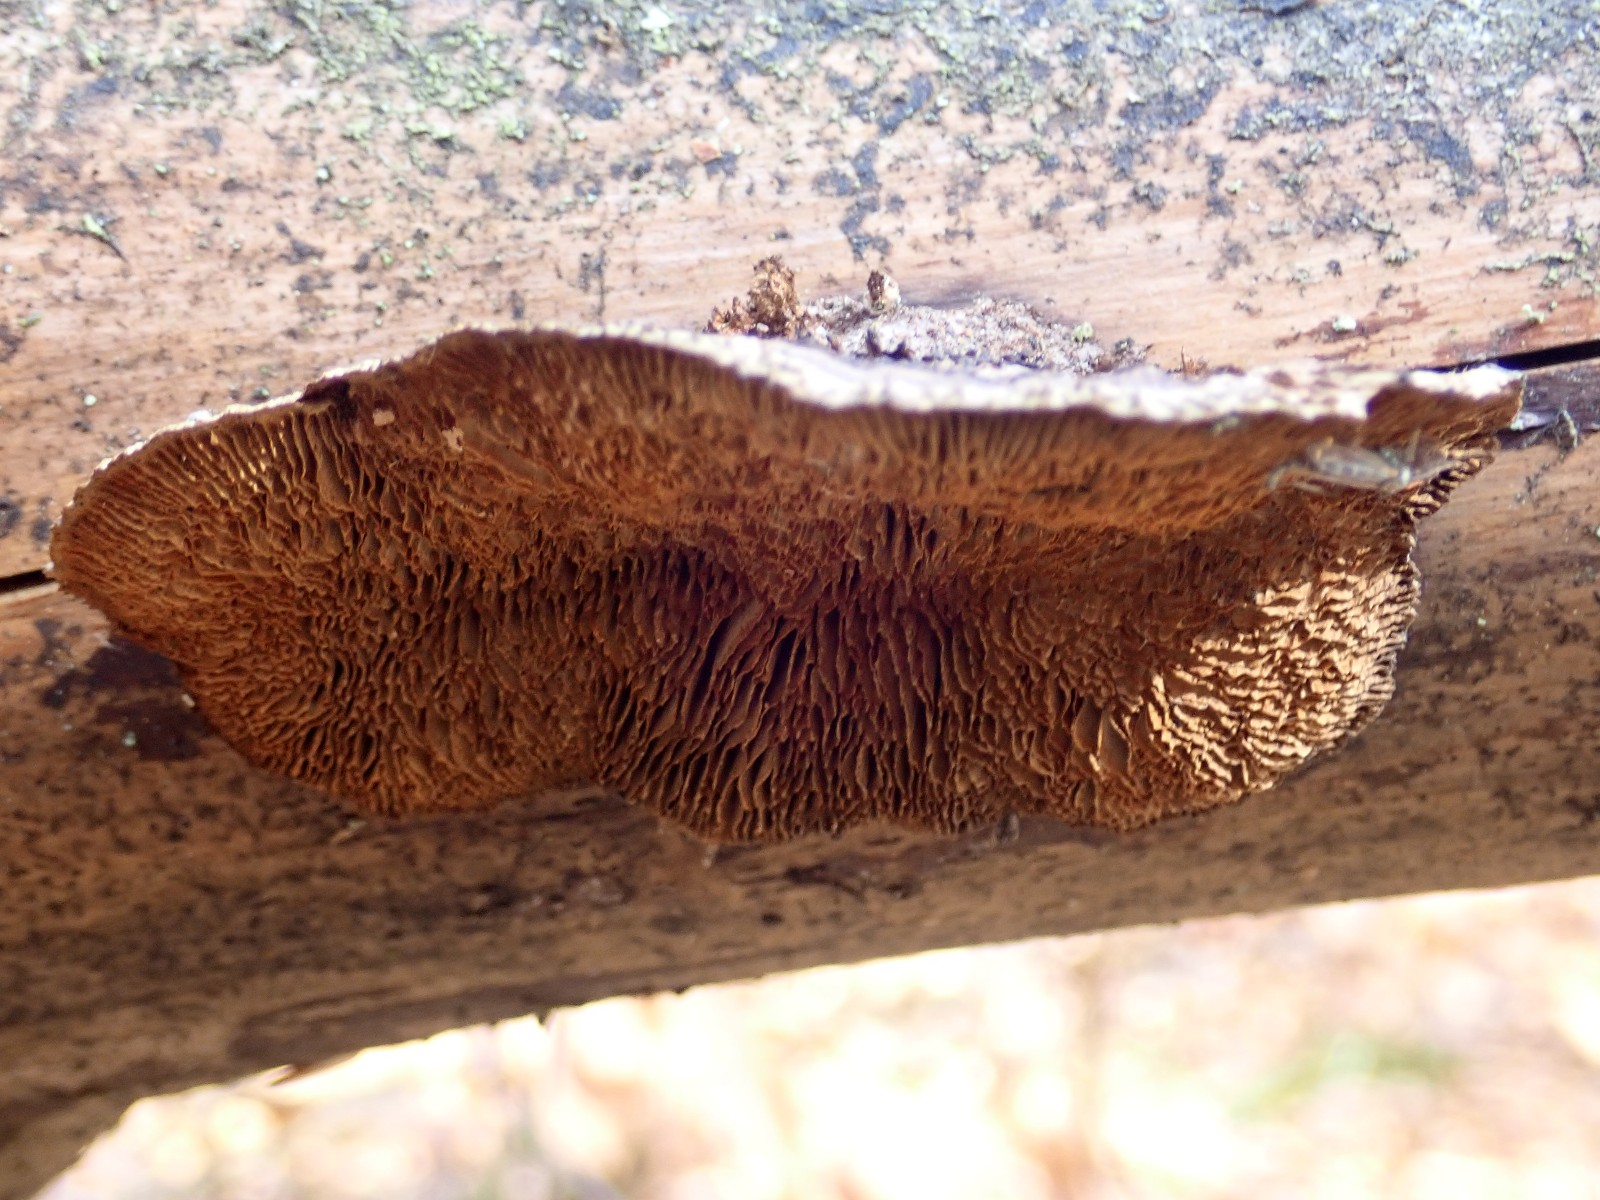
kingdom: Fungi
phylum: Basidiomycota
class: Agaricomycetes
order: Gloeophyllales
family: Gloeophyllaceae
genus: Gloeophyllum
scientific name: Gloeophyllum sepiarium
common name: fyrre-korkhat
